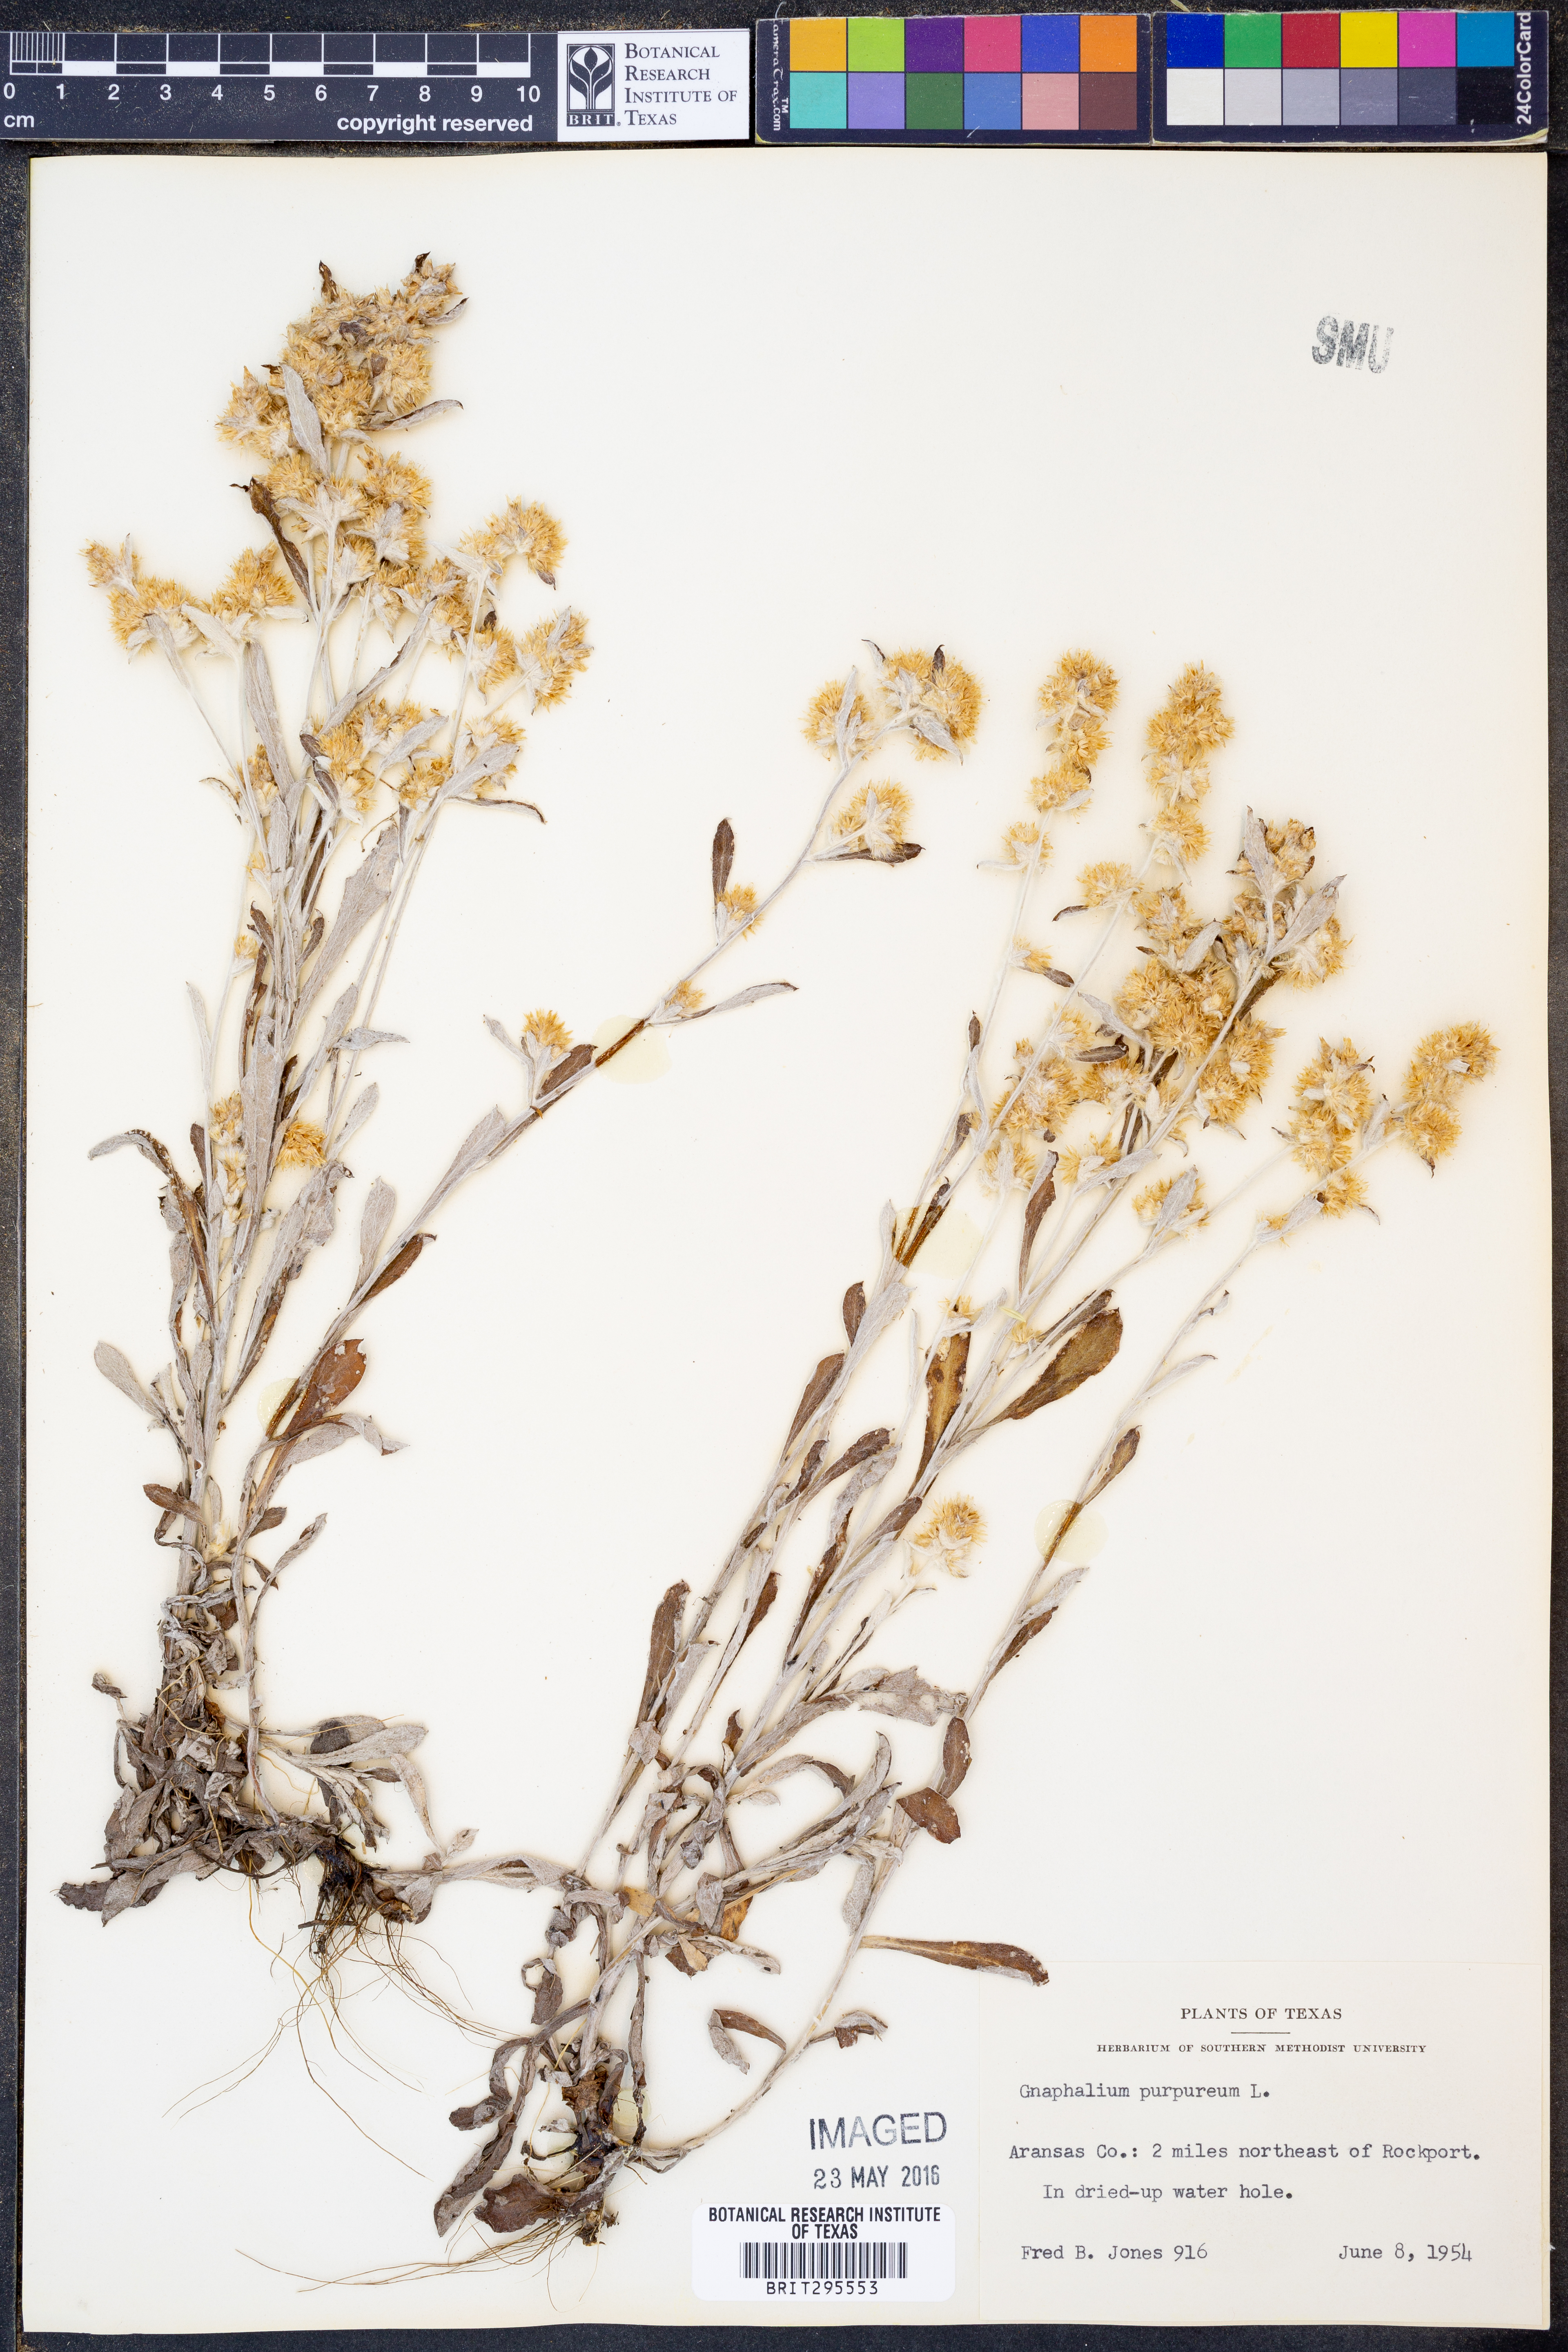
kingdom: Plantae
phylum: Tracheophyta
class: Magnoliopsida
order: Asterales
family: Asteraceae
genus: Gamochaeta
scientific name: Gamochaeta purpurea
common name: Purple cudweed
